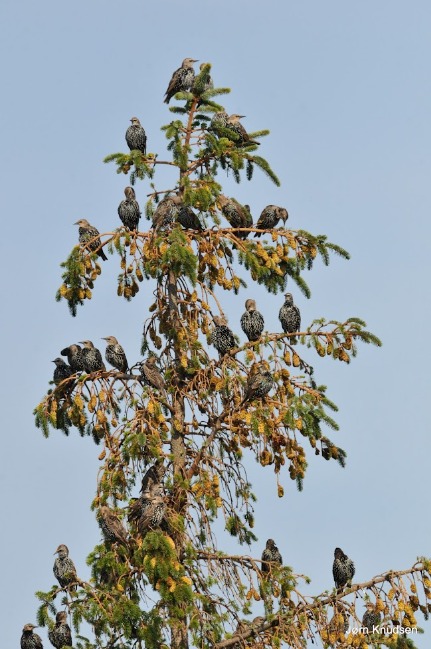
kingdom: Animalia
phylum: Chordata
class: Aves
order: Passeriformes
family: Sturnidae
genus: Sturnus
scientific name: Sturnus vulgaris
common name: Stær
